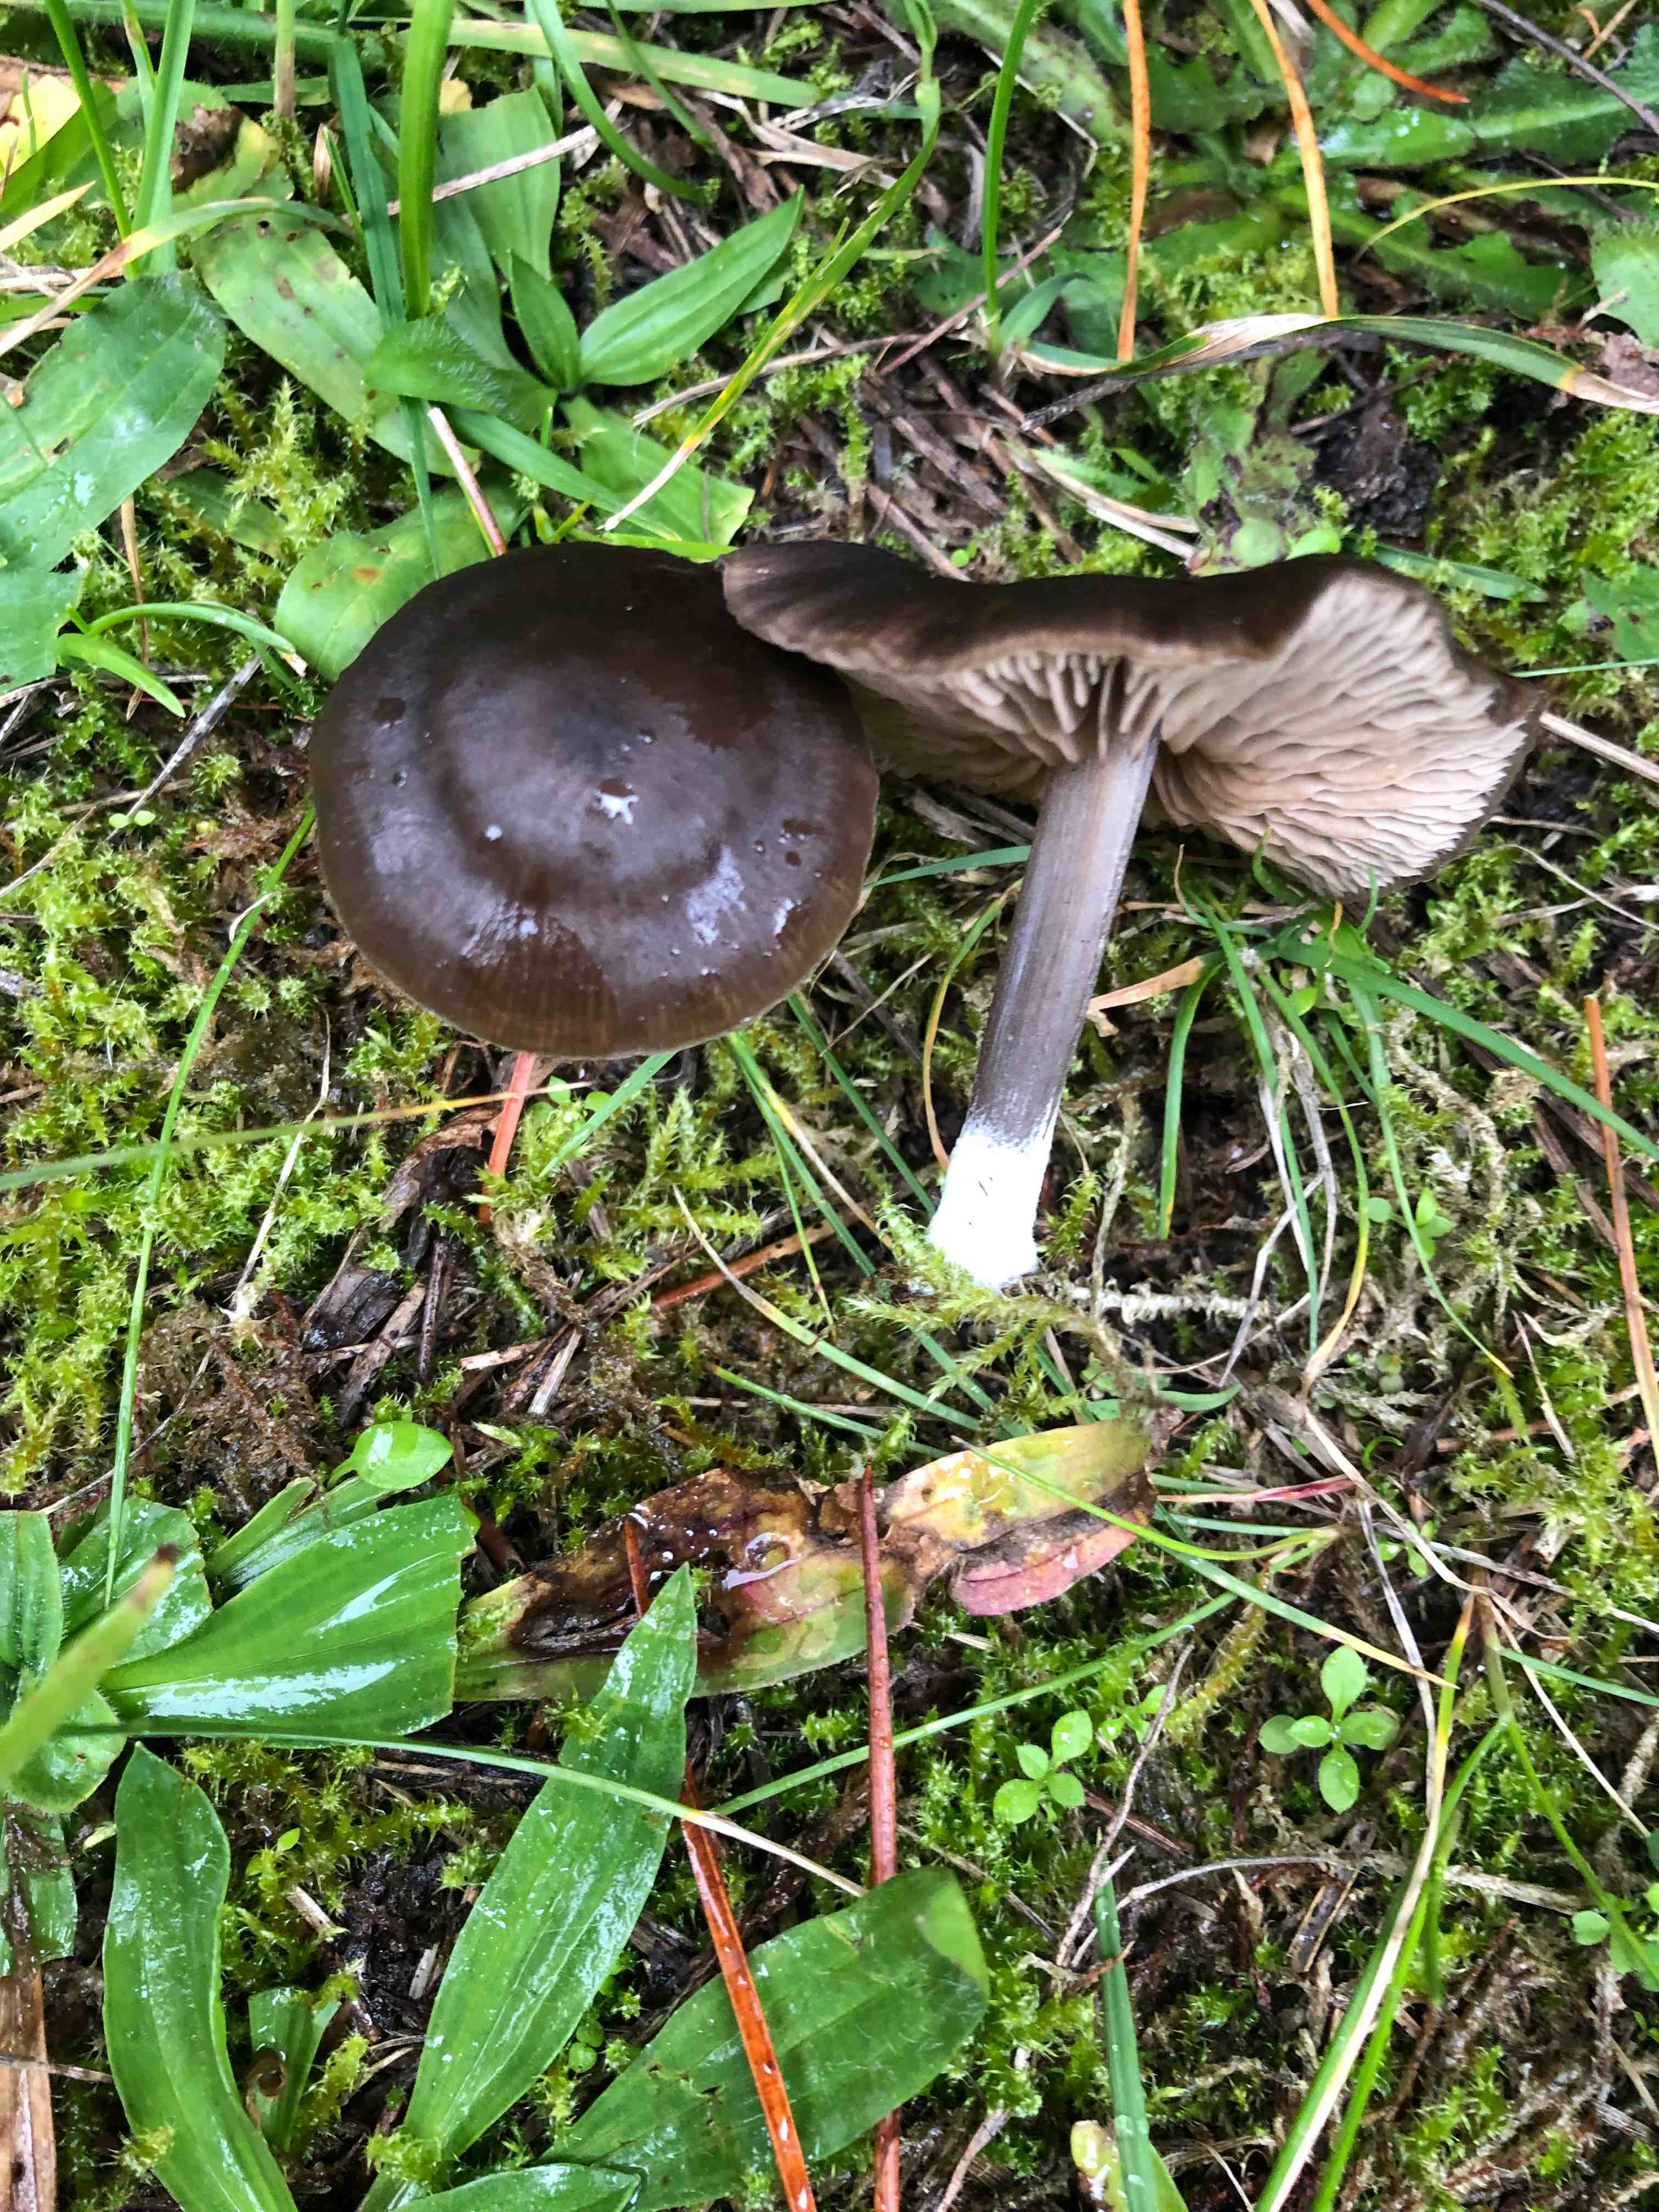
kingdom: Fungi
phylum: Basidiomycota
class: Agaricomycetes
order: Agaricales
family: Entolomataceae
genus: Entoloma
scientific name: Entoloma sericeum
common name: silkeglinsende rødblad
